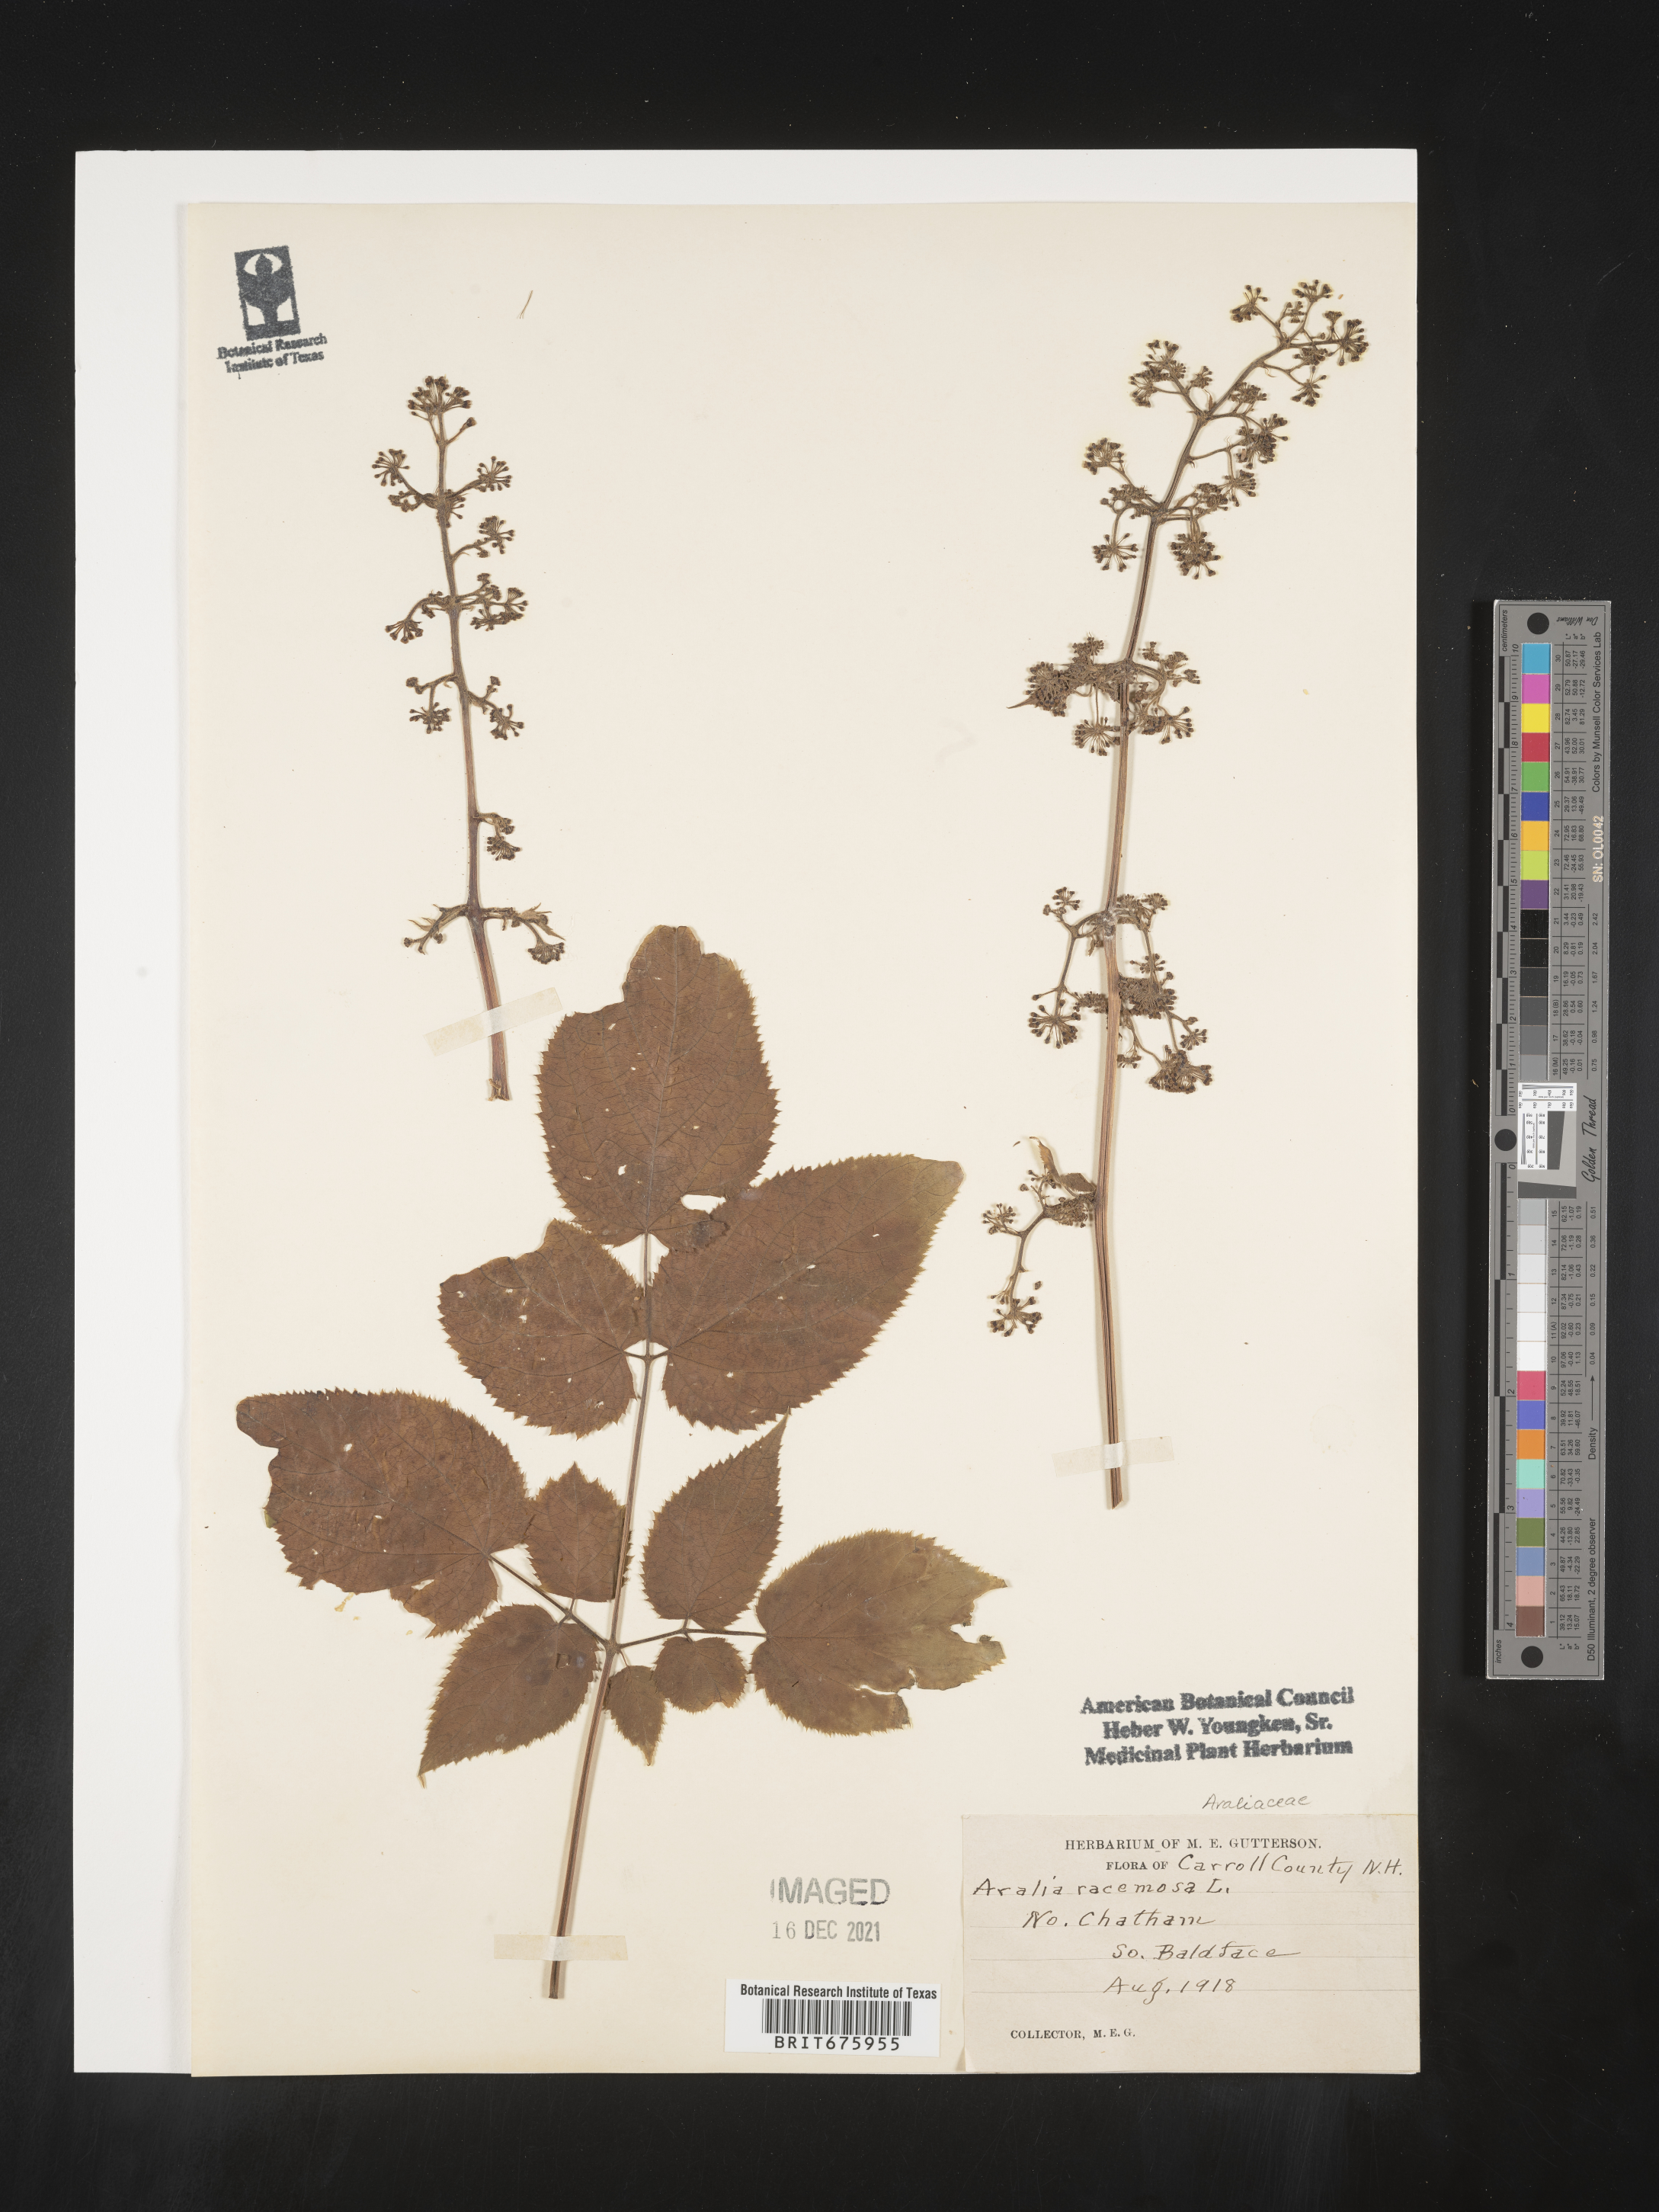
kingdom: Plantae
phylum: Tracheophyta
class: Magnoliopsida
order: Apiales
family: Araliaceae
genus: Aralia
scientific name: Aralia racemosa
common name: American-spikenard
